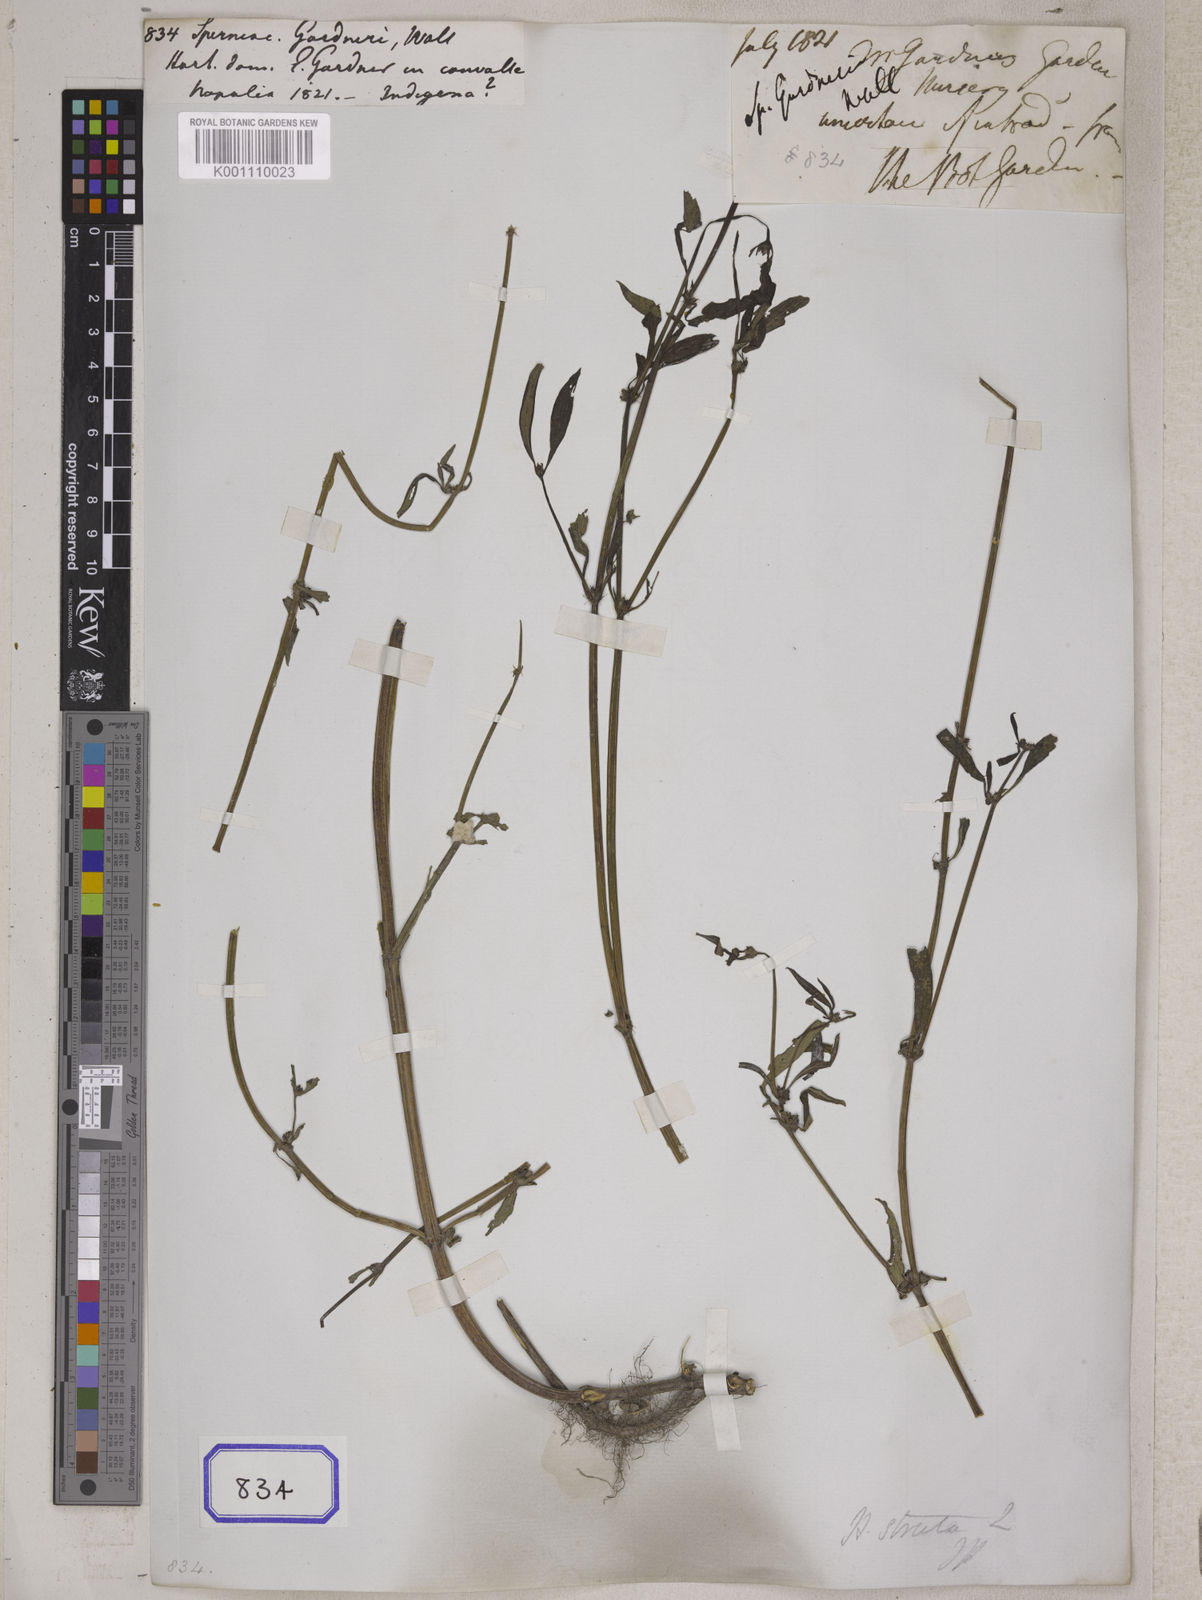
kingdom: Plantae
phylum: Tracheophyta
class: Magnoliopsida
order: Gentianales
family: Rubiaceae
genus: Spermacoce
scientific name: Spermacoce pusilla
